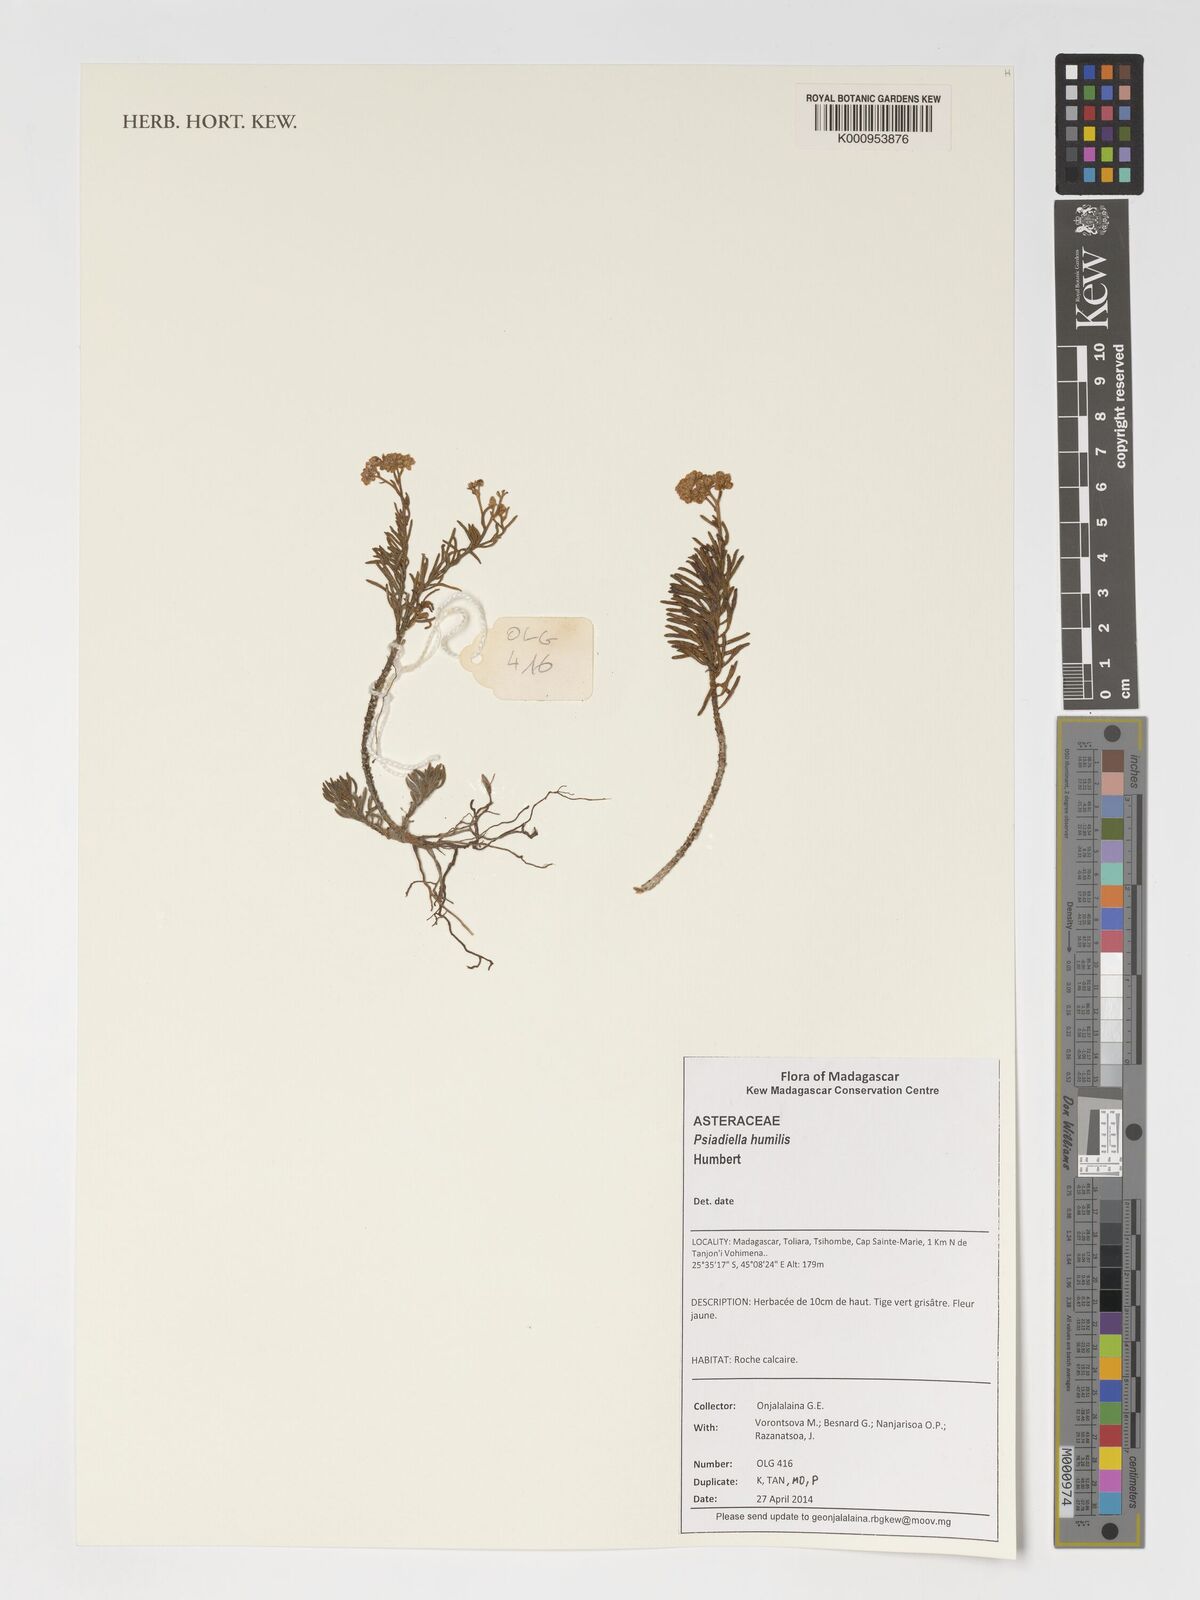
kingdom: Plantae
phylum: Tracheophyta
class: Magnoliopsida
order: Asterales
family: Asteraceae
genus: Psiadia
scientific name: Psiadia humilis
